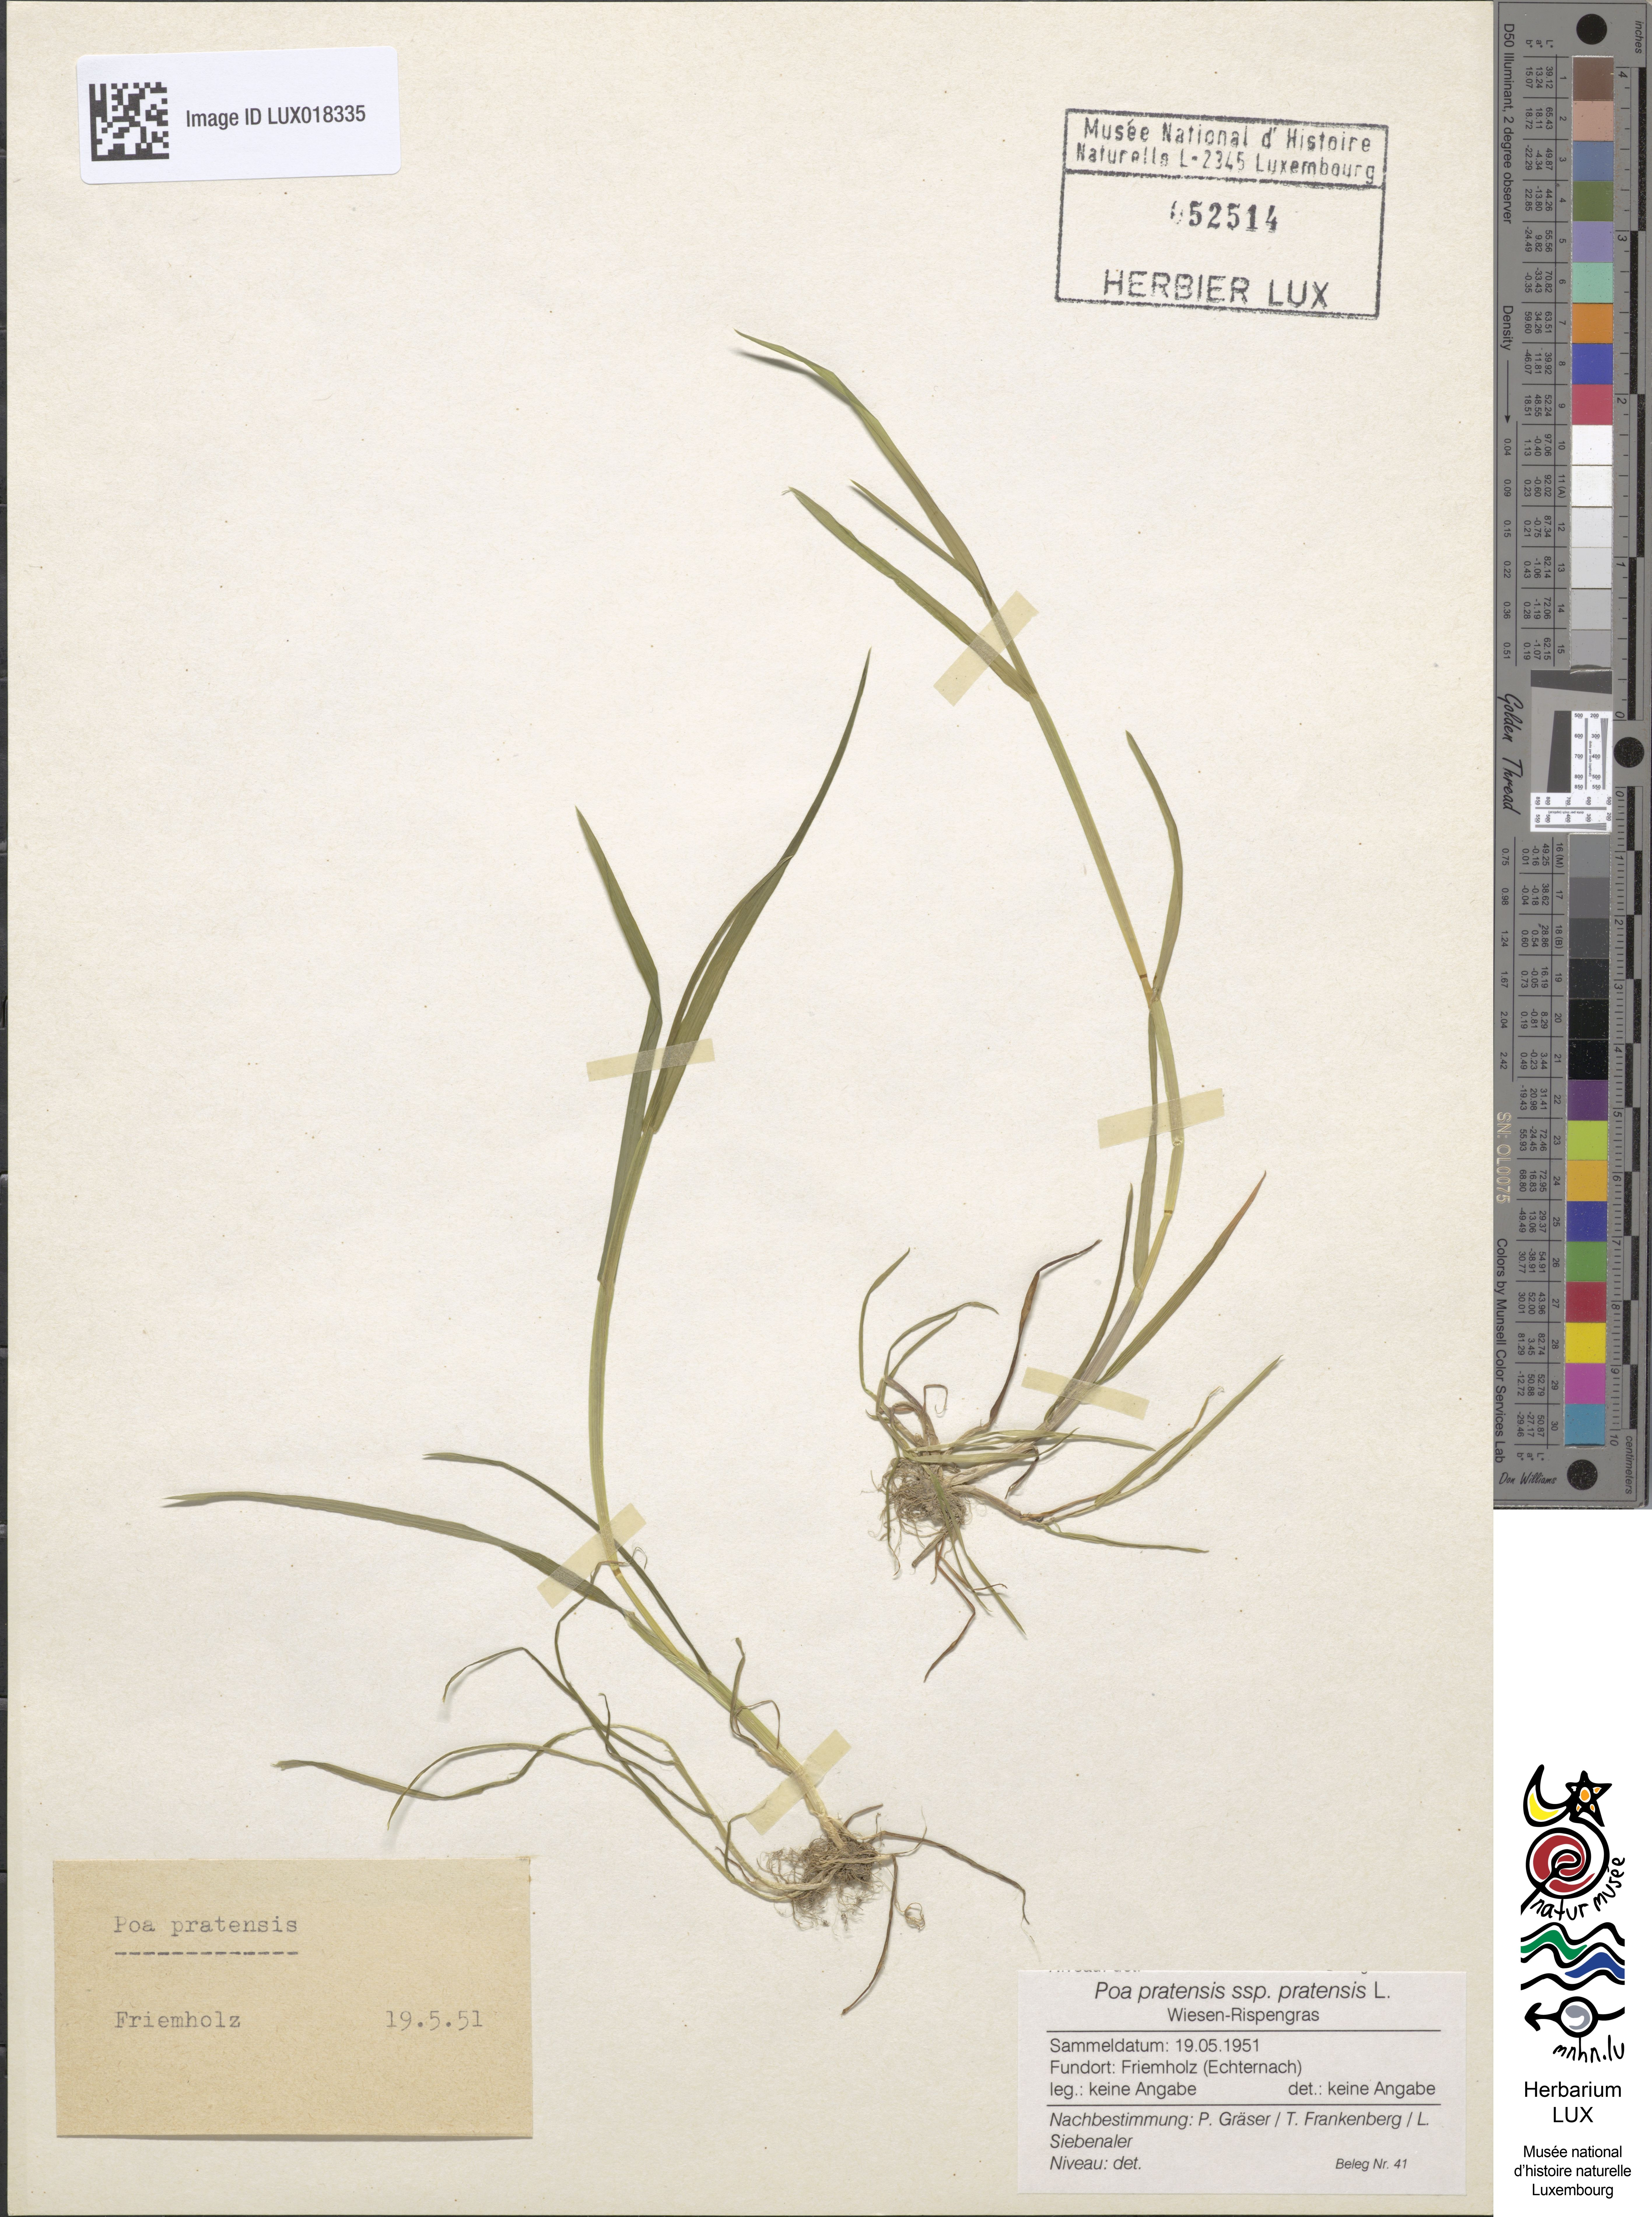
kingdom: Plantae
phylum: Tracheophyta
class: Liliopsida
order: Poales
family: Poaceae
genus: Poa
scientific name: Poa pratensis
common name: Kentucky bluegrass
